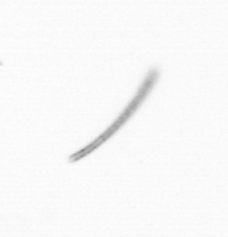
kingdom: Chromista
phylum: Ochrophyta
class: Bacillariophyceae
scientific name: Bacillariophyceae
